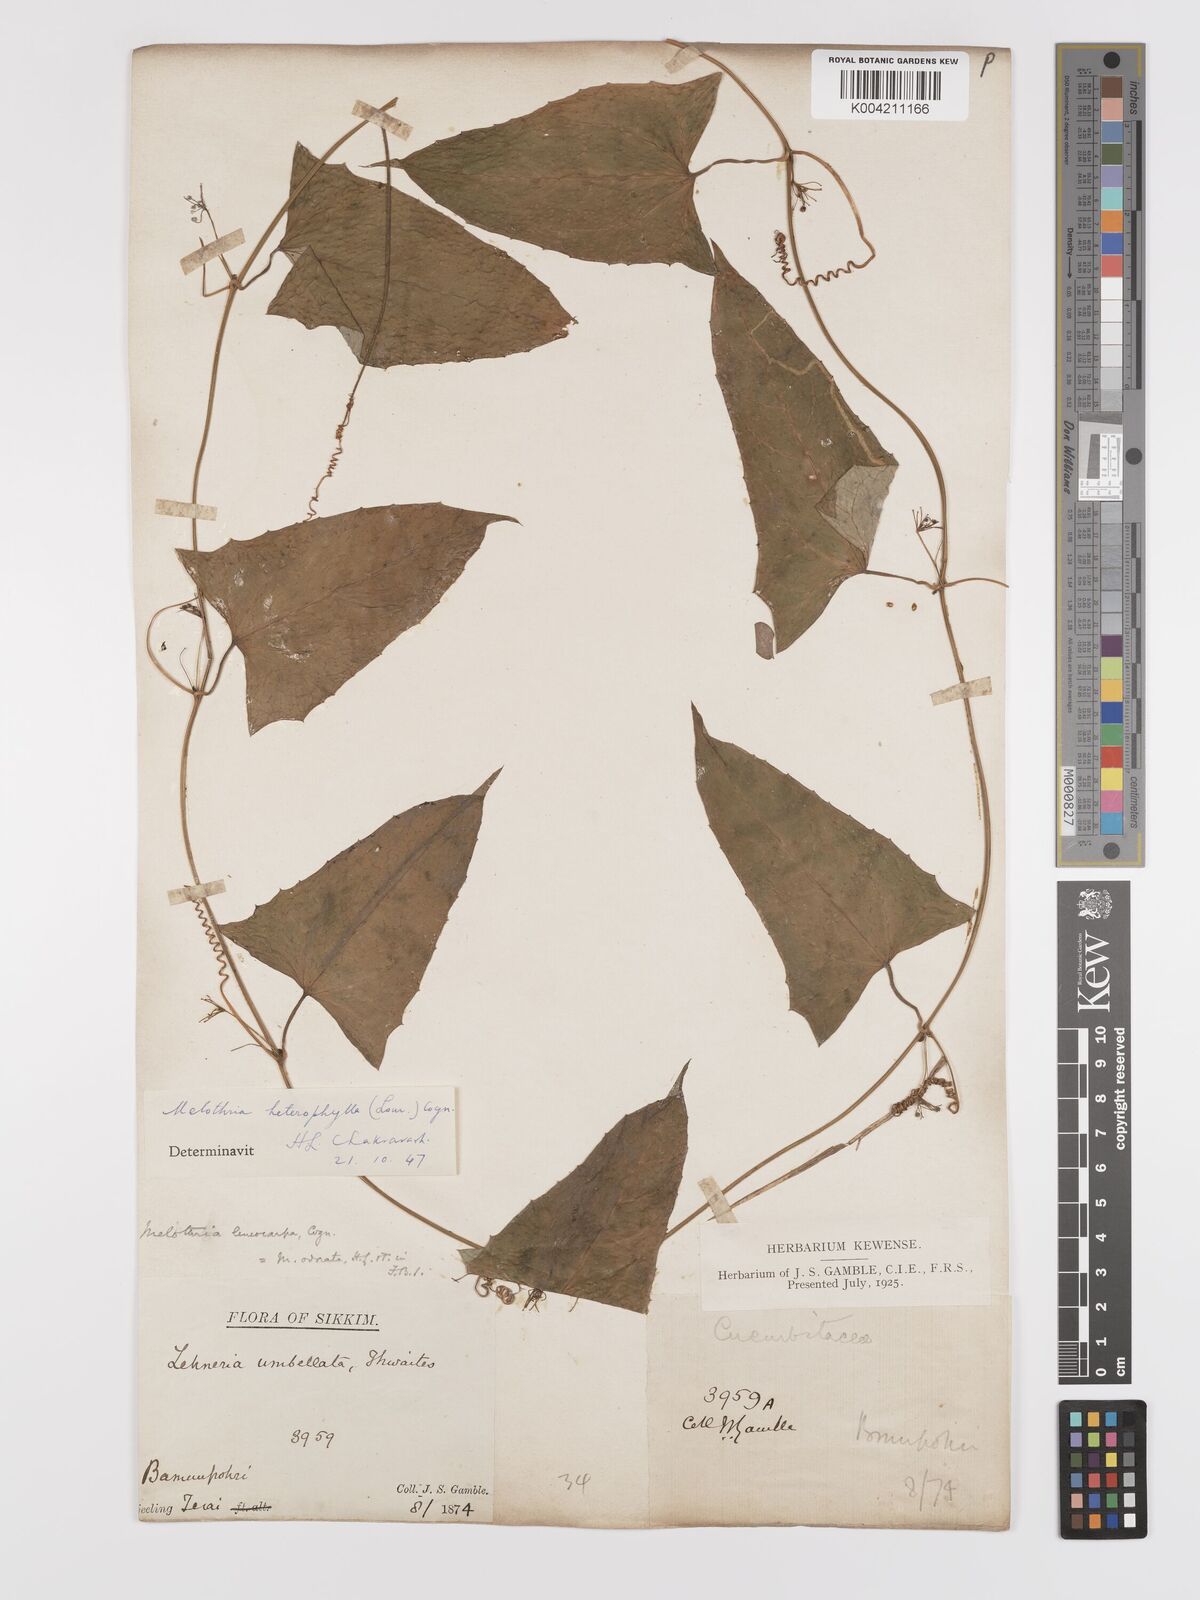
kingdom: Plantae
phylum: Tracheophyta
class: Magnoliopsida
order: Cucurbitales
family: Cucurbitaceae
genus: Solena
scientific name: Solena amplexicaulis
